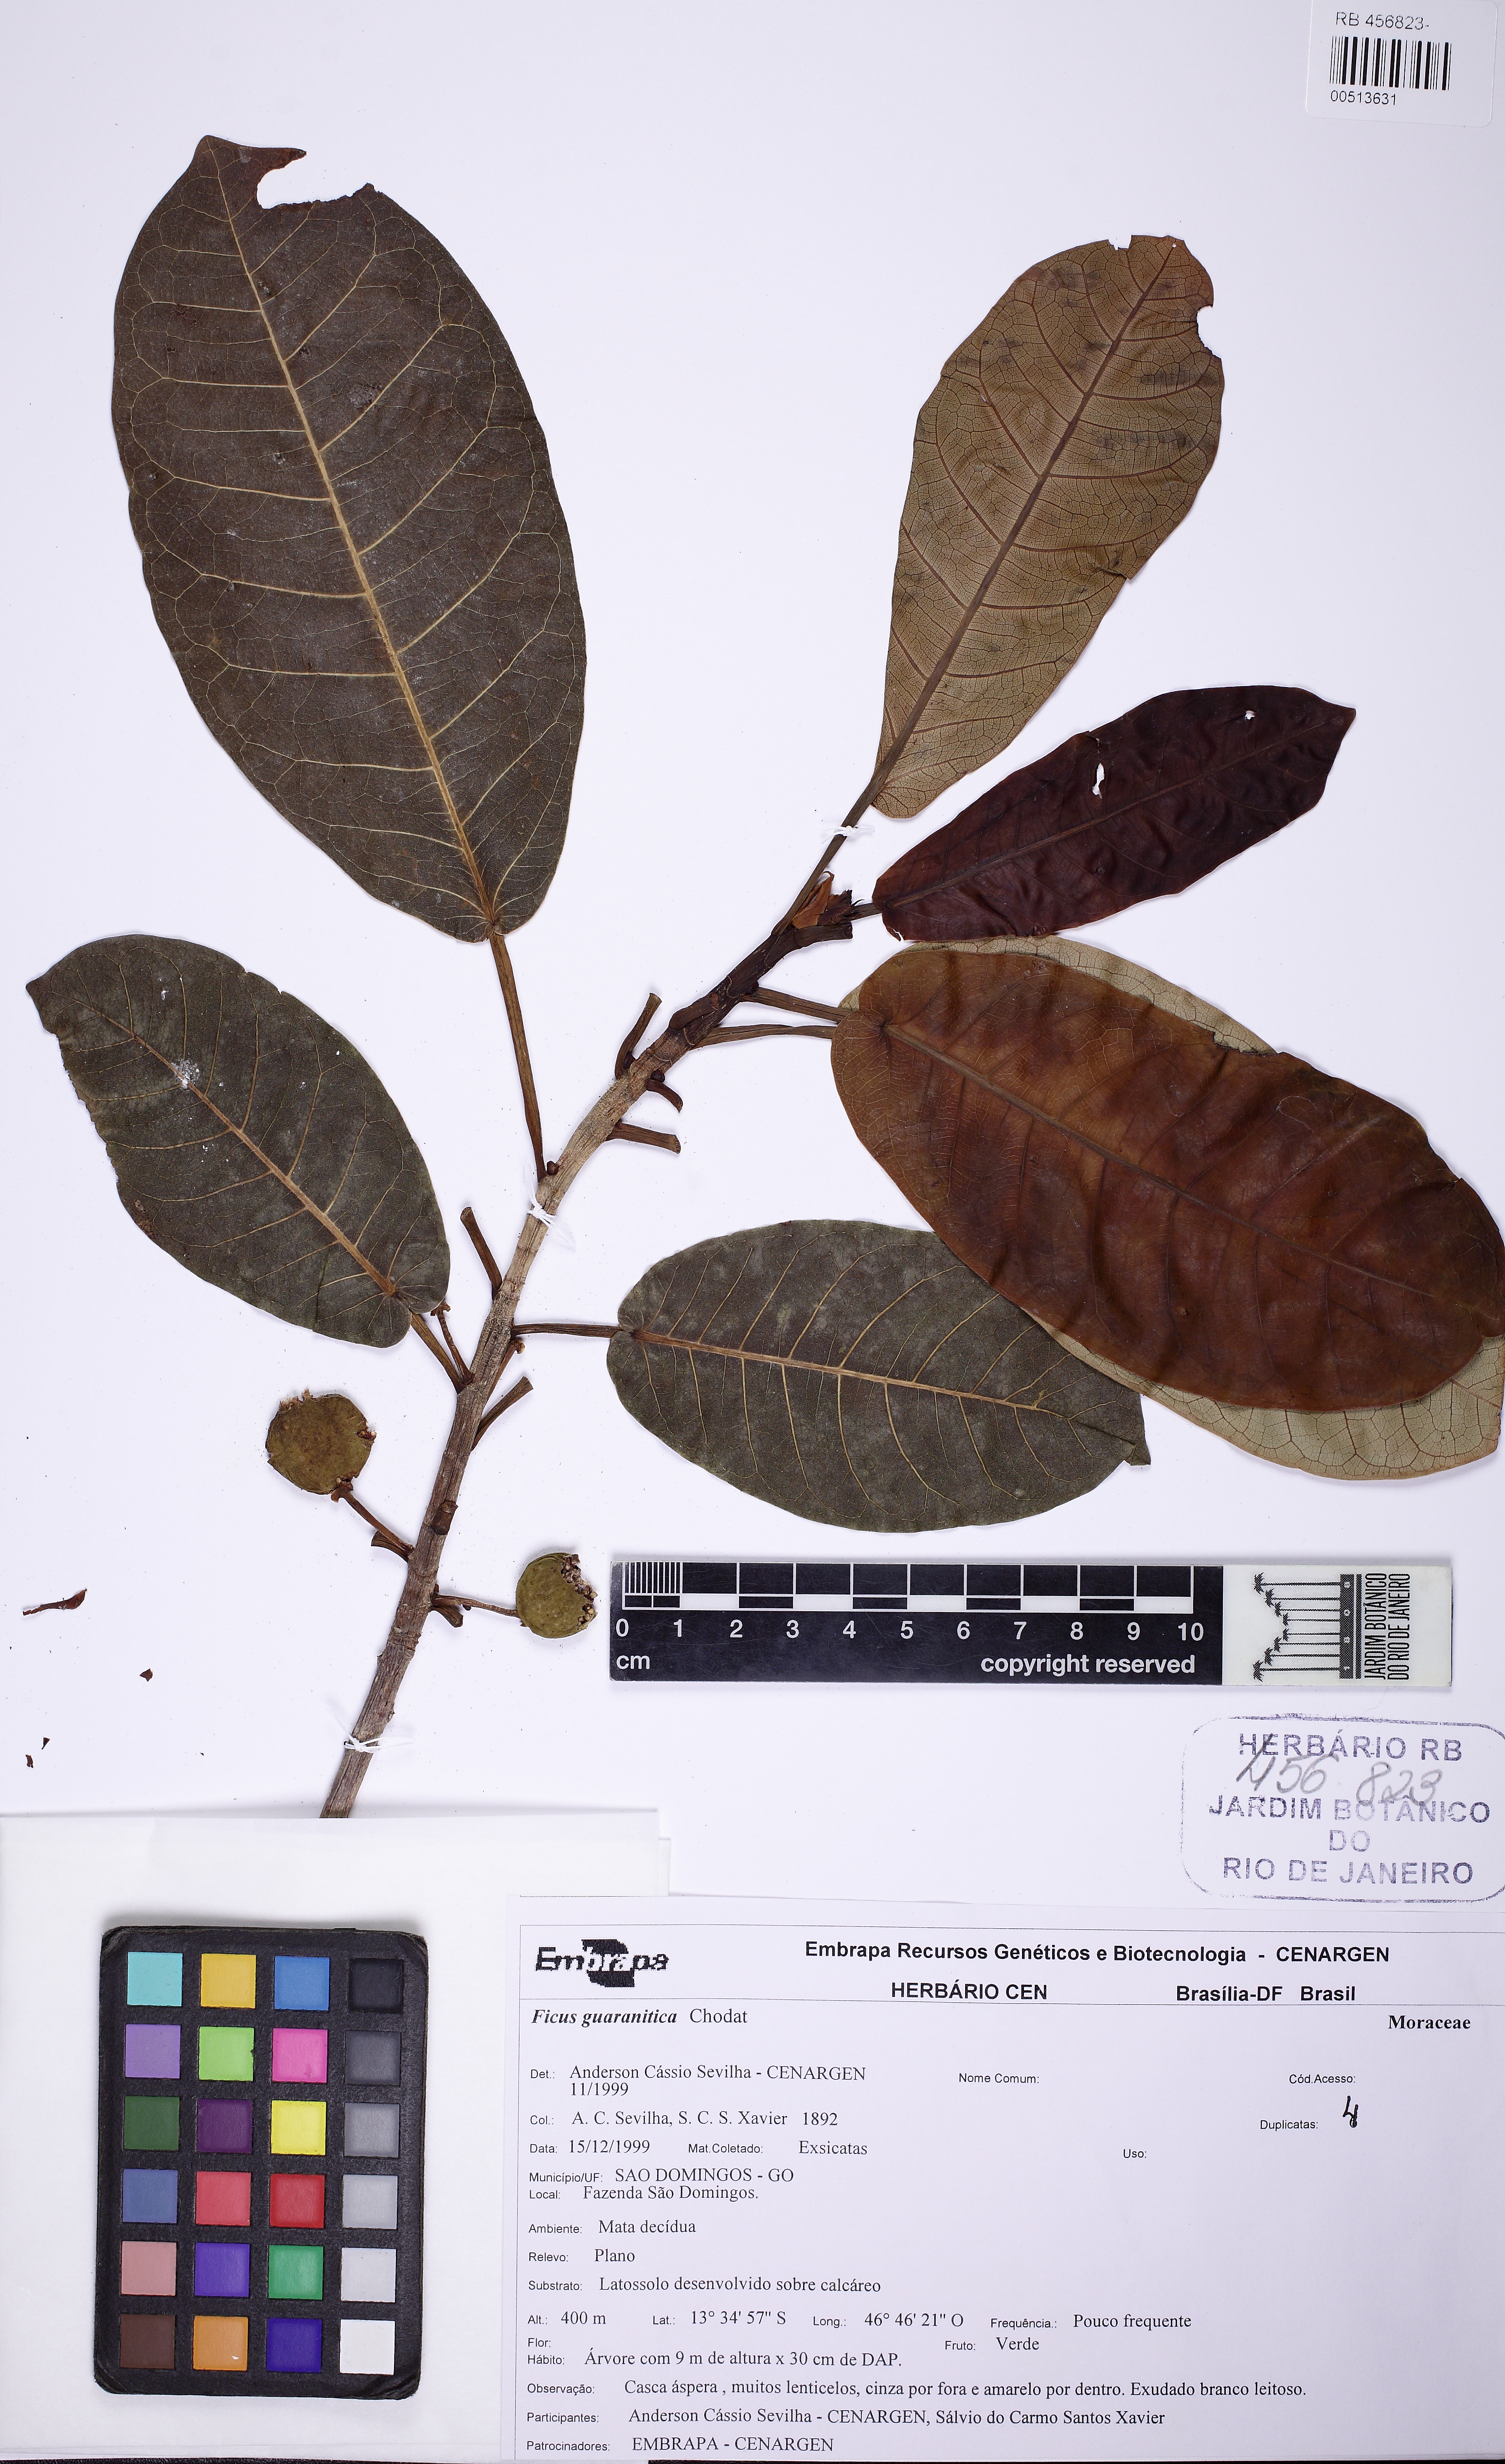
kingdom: Plantae
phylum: Tracheophyta
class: Magnoliopsida
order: Rosales
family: Moraceae
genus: Ficus
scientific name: Ficus guaranitica
